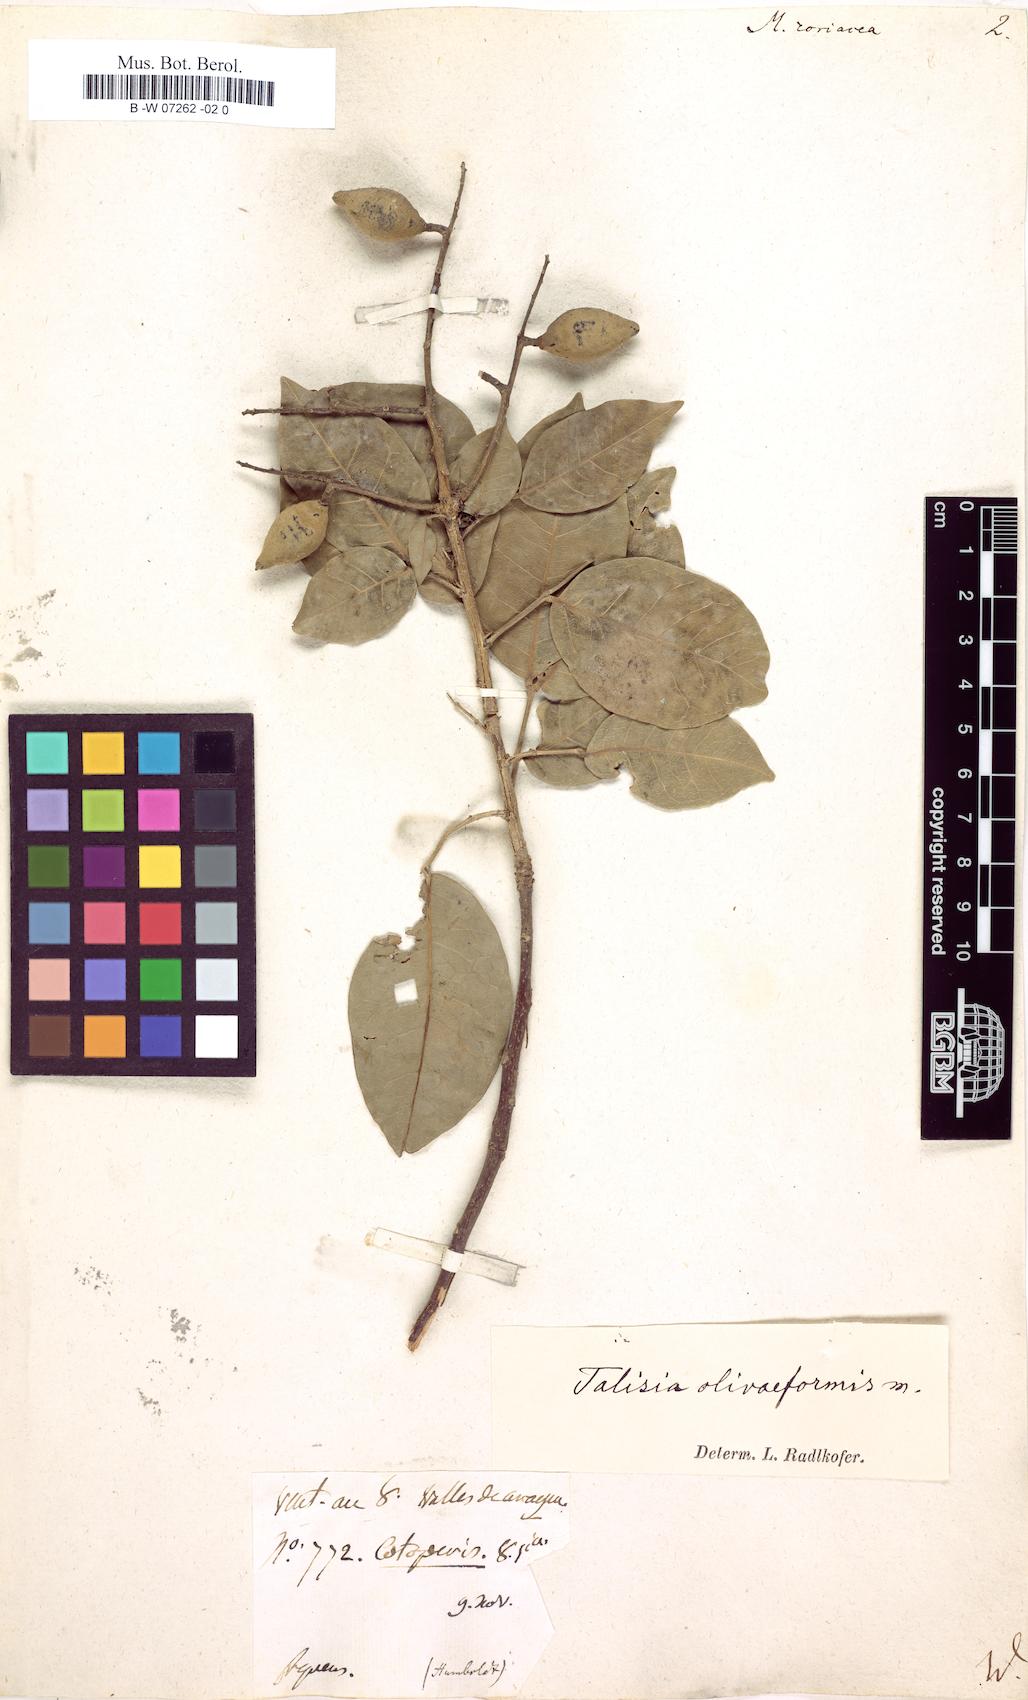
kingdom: Plantae
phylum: Tracheophyta
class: Magnoliopsida
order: Sapindales
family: Sapindaceae
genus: Melicoccus
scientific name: Melicoccus
